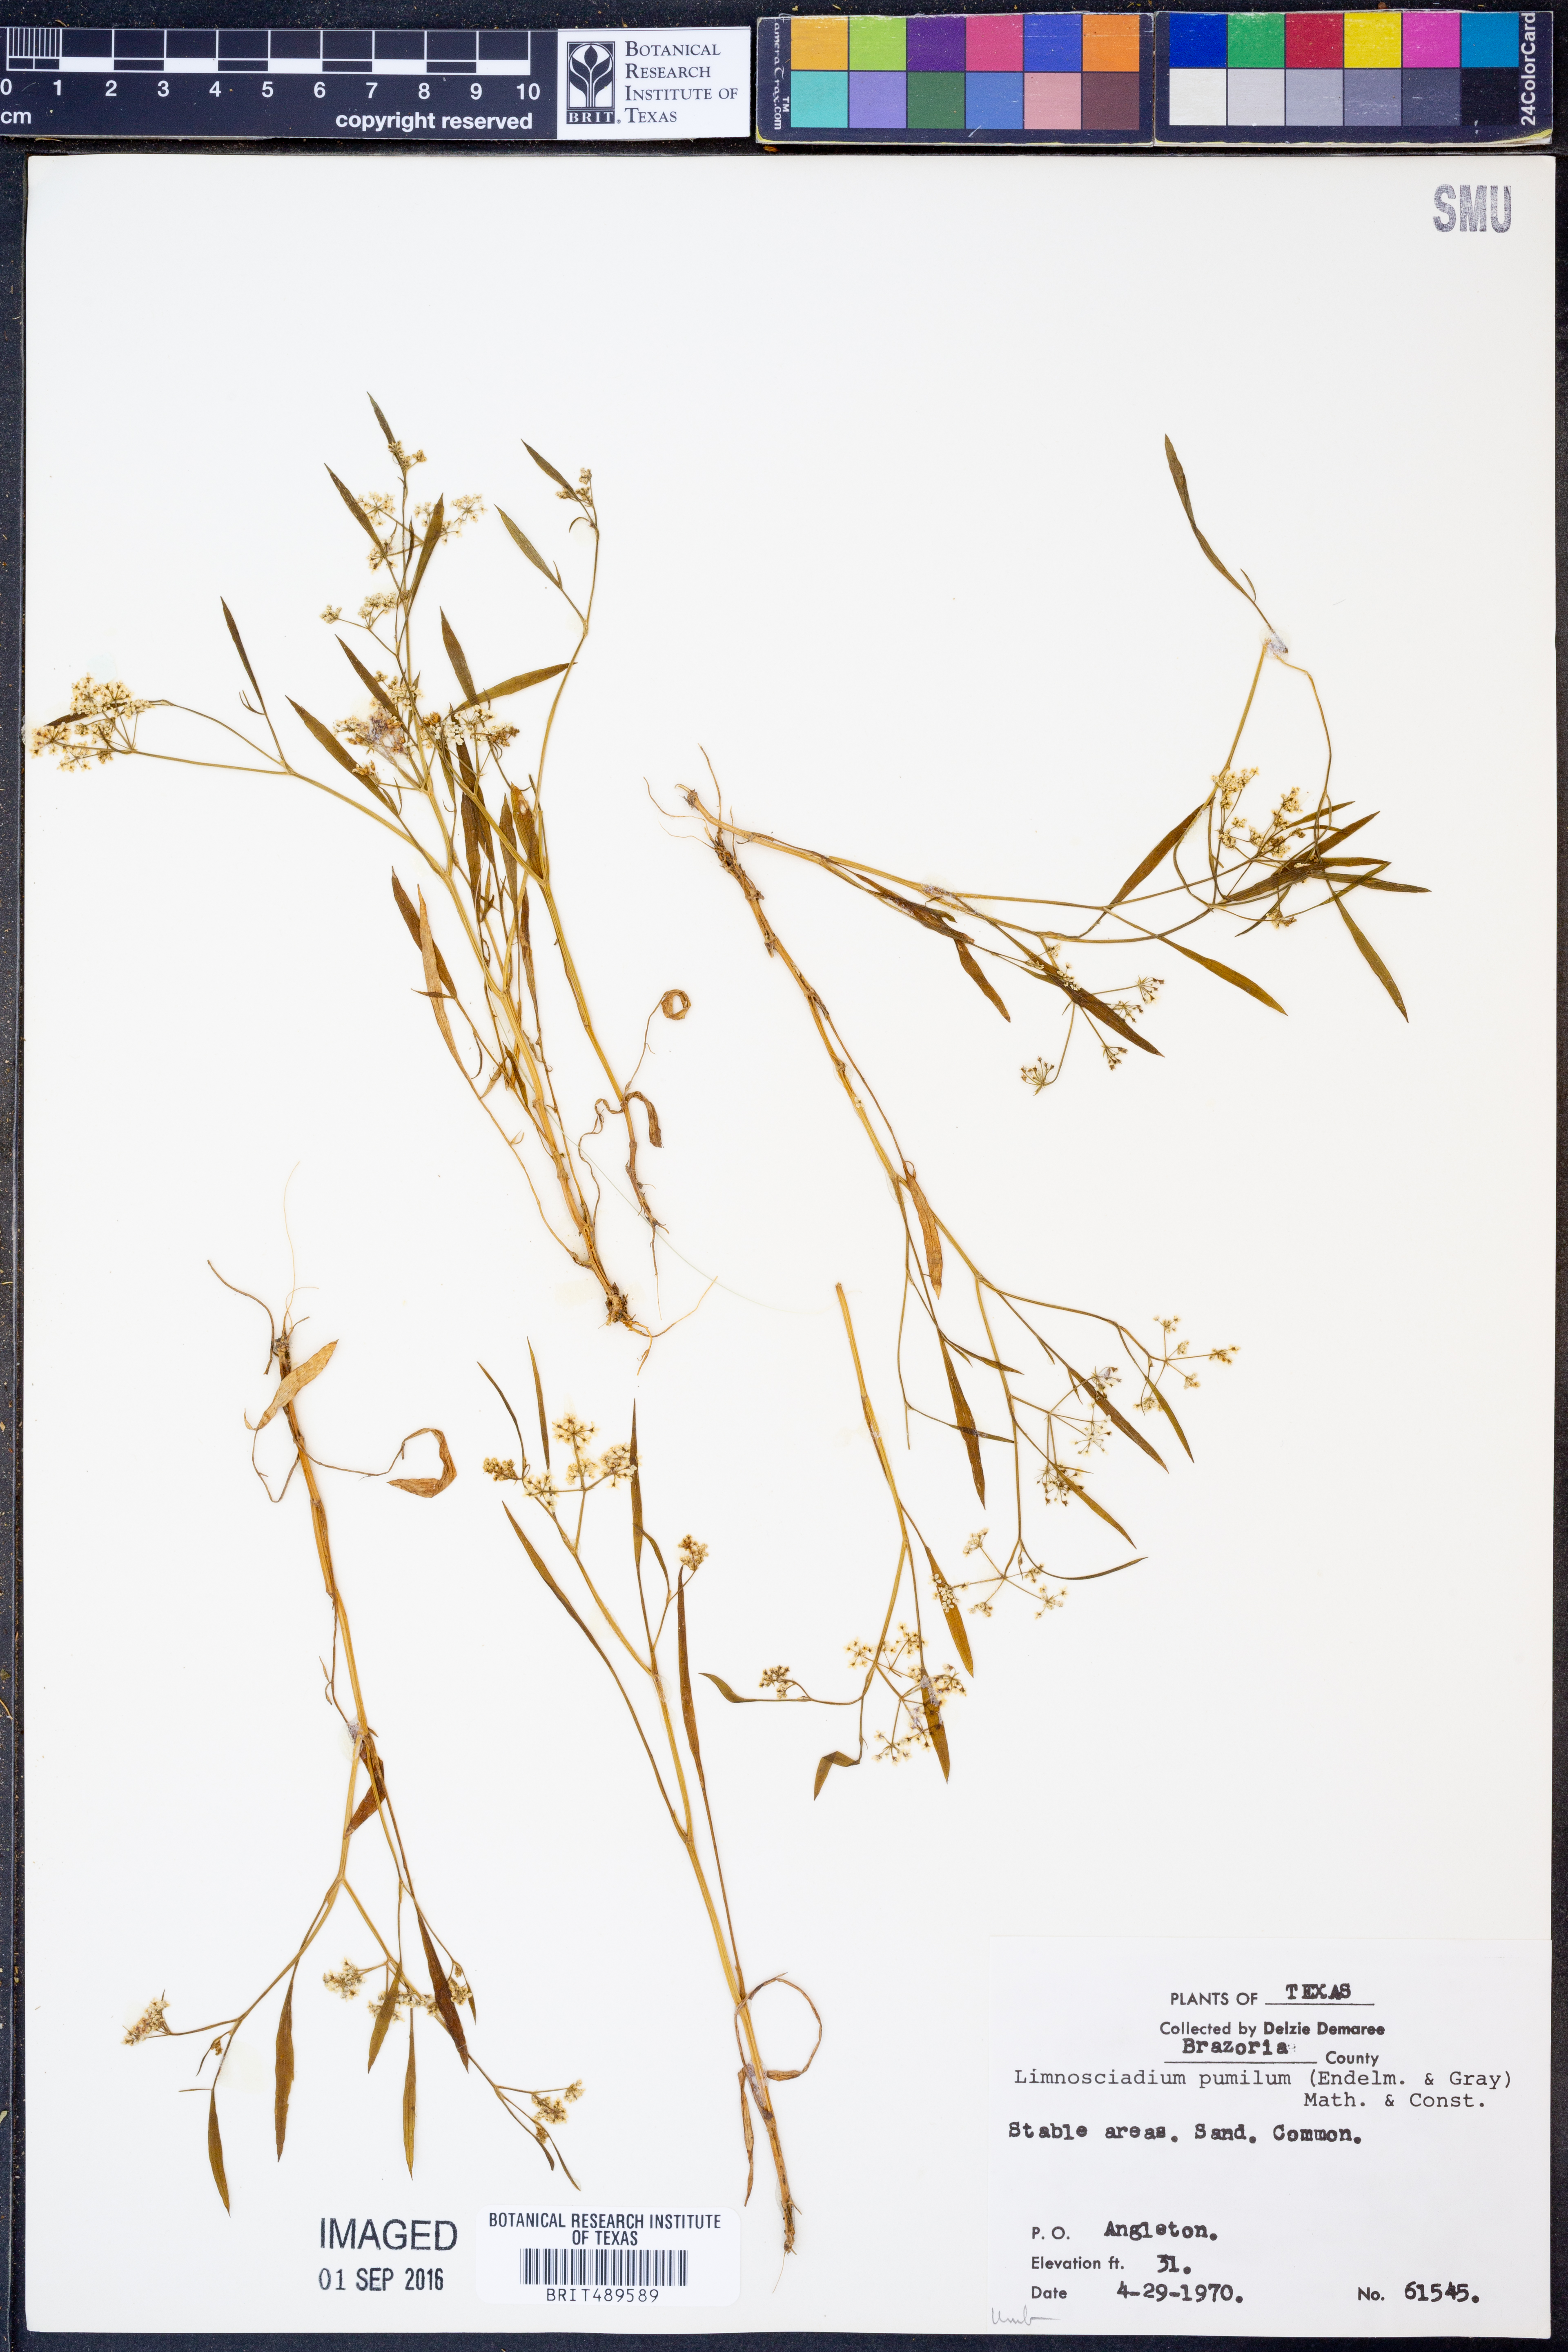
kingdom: Plantae
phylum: Tracheophyta
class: Magnoliopsida
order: Apiales
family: Apiaceae
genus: Limnosciadium
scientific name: Limnosciadium pinnatum
